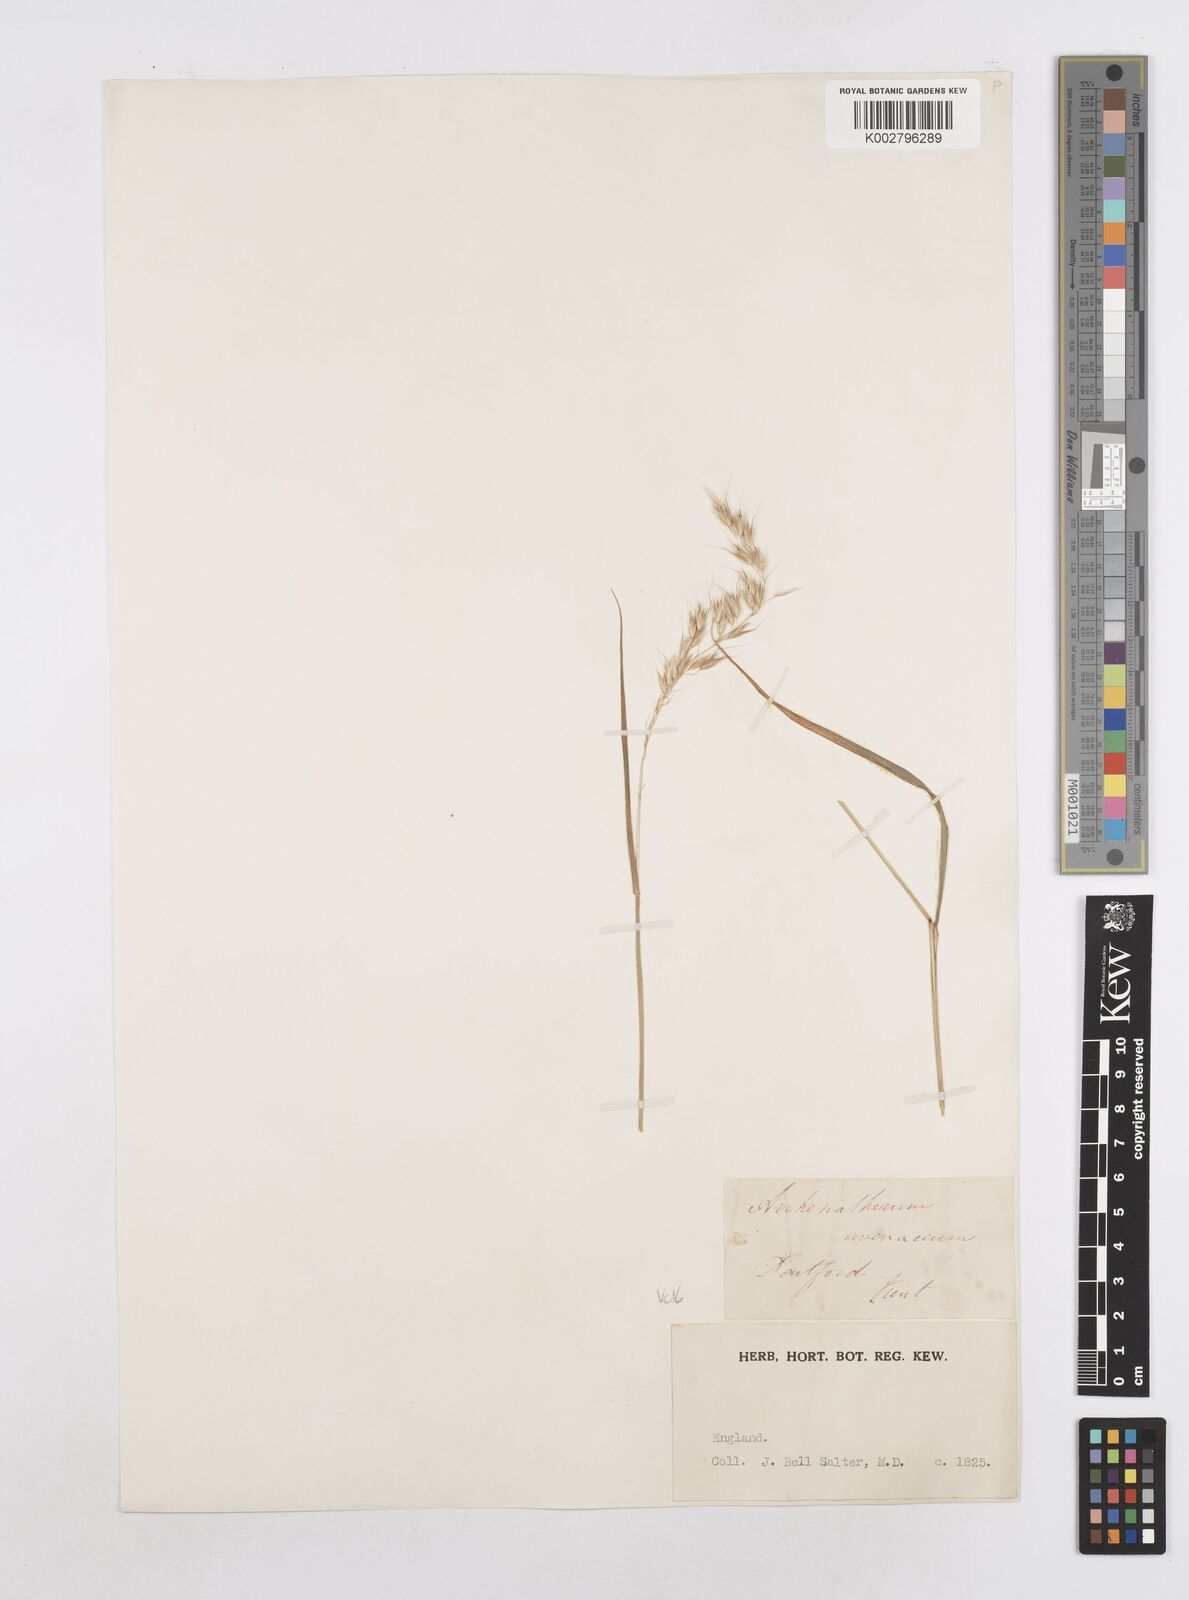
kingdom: Plantae
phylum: Tracheophyta
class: Liliopsida
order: Poales
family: Poaceae
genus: Arrhenatherum
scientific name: Arrhenatherum elatius
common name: Tall oatgrass
